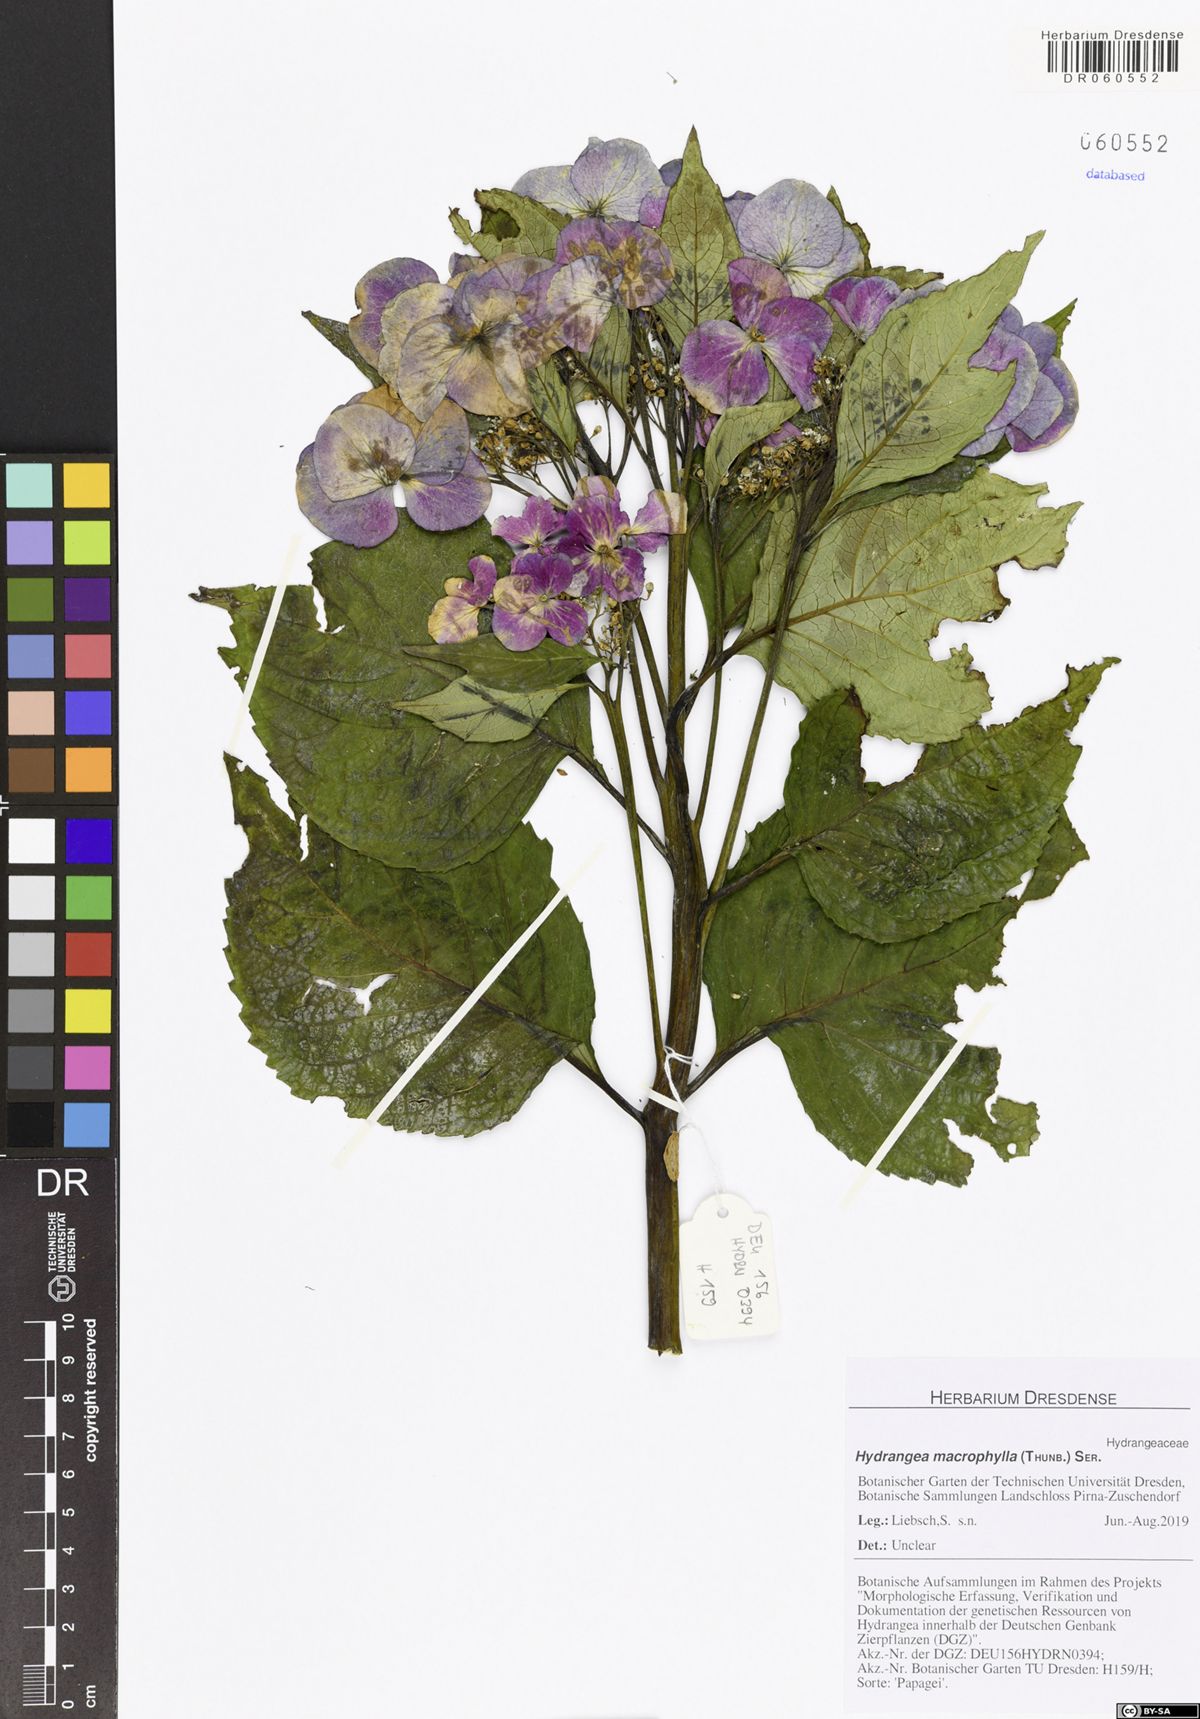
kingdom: Plantae
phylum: Tracheophyta
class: Magnoliopsida
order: Cornales
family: Hydrangeaceae
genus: Hydrangea
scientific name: Hydrangea macrophylla
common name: Hydrangea
